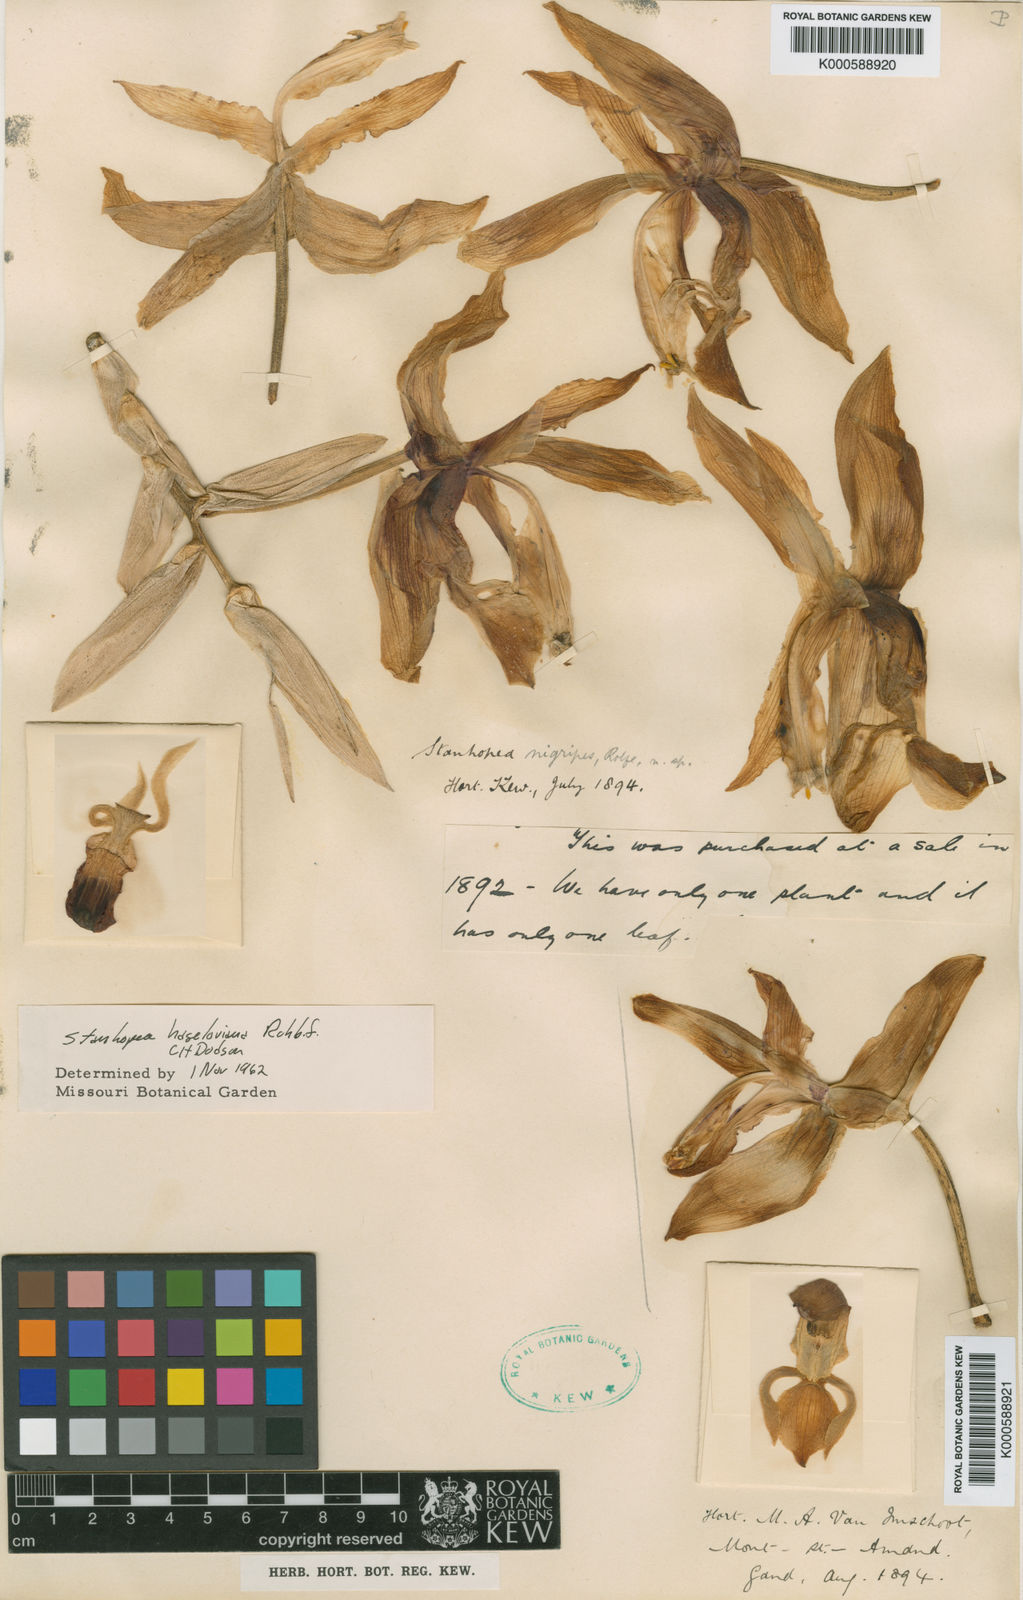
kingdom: Plantae
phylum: Tracheophyta
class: Liliopsida
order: Asparagales
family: Orchidaceae
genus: Stanhopea
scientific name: Stanhopea
